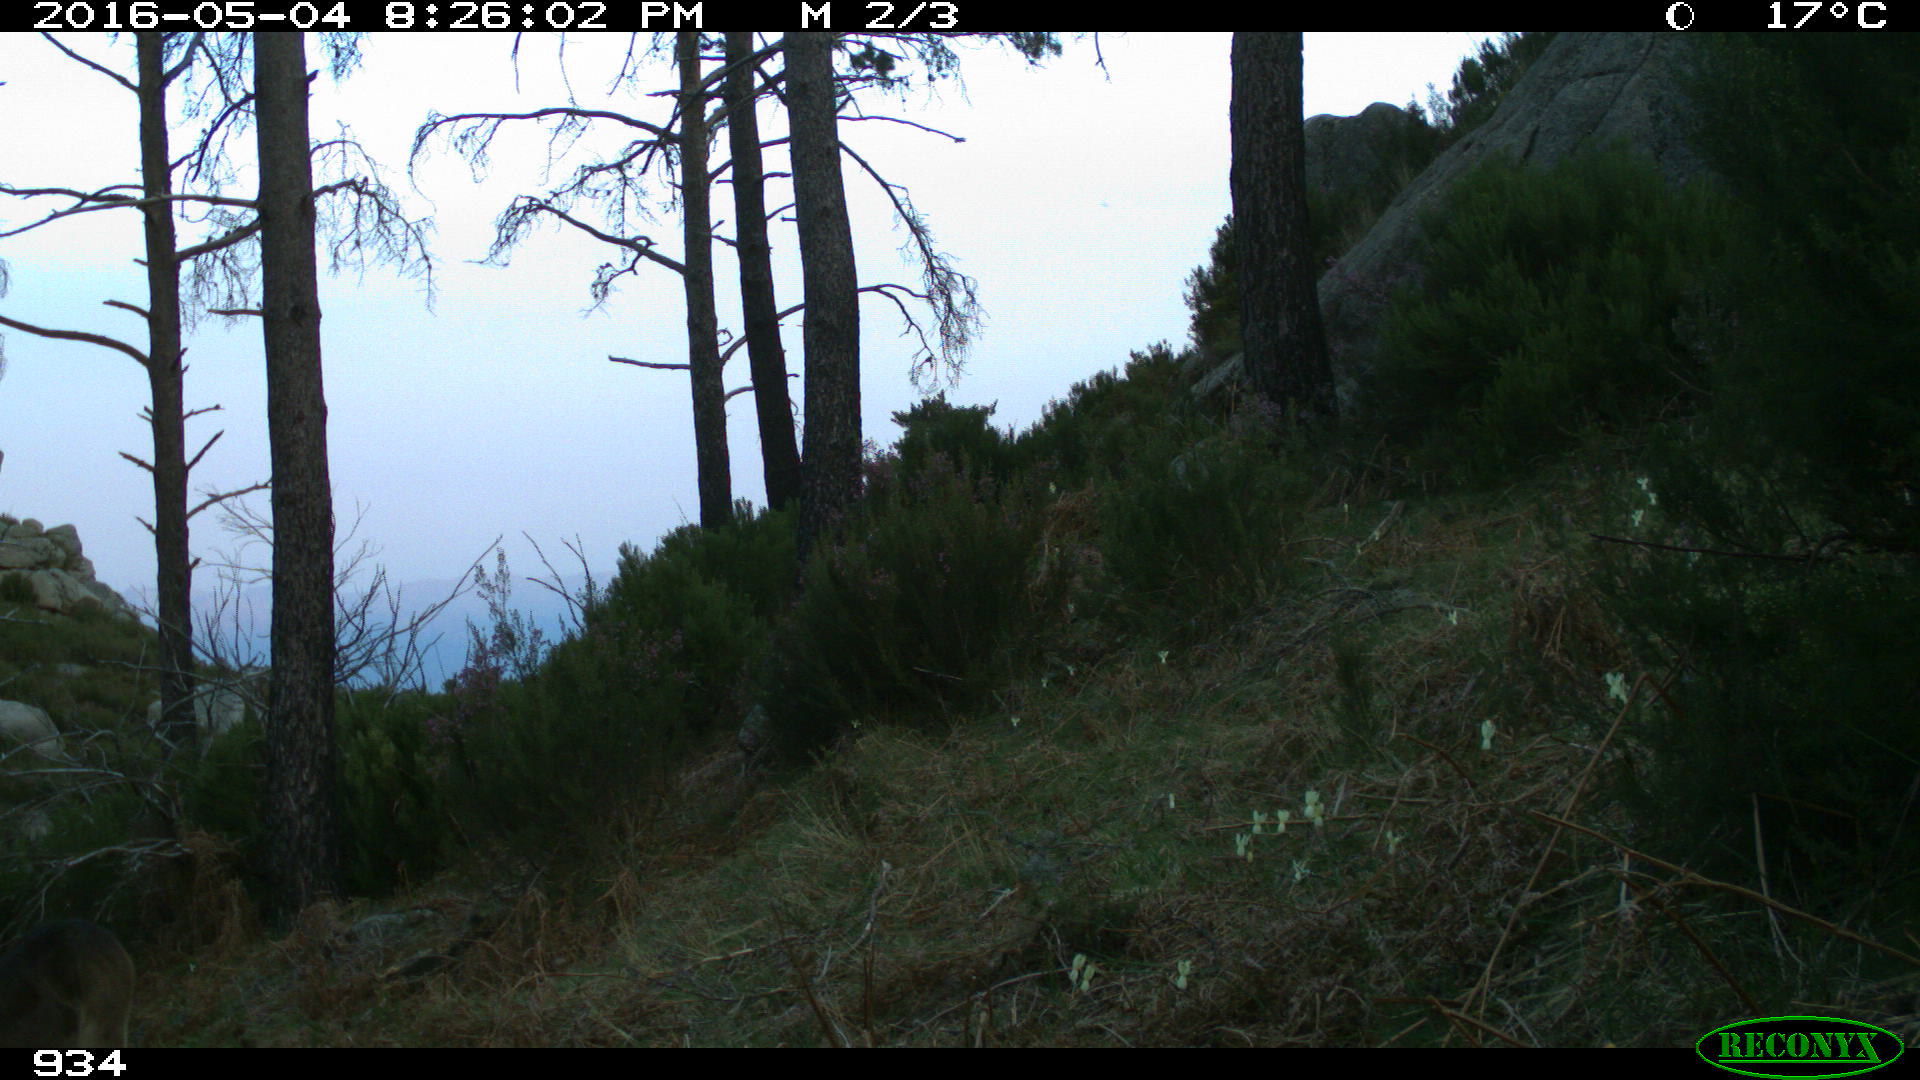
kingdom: Animalia
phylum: Chordata
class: Mammalia
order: Perissodactyla
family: Equidae
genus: Equus
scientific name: Equus caballus
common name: Horse
